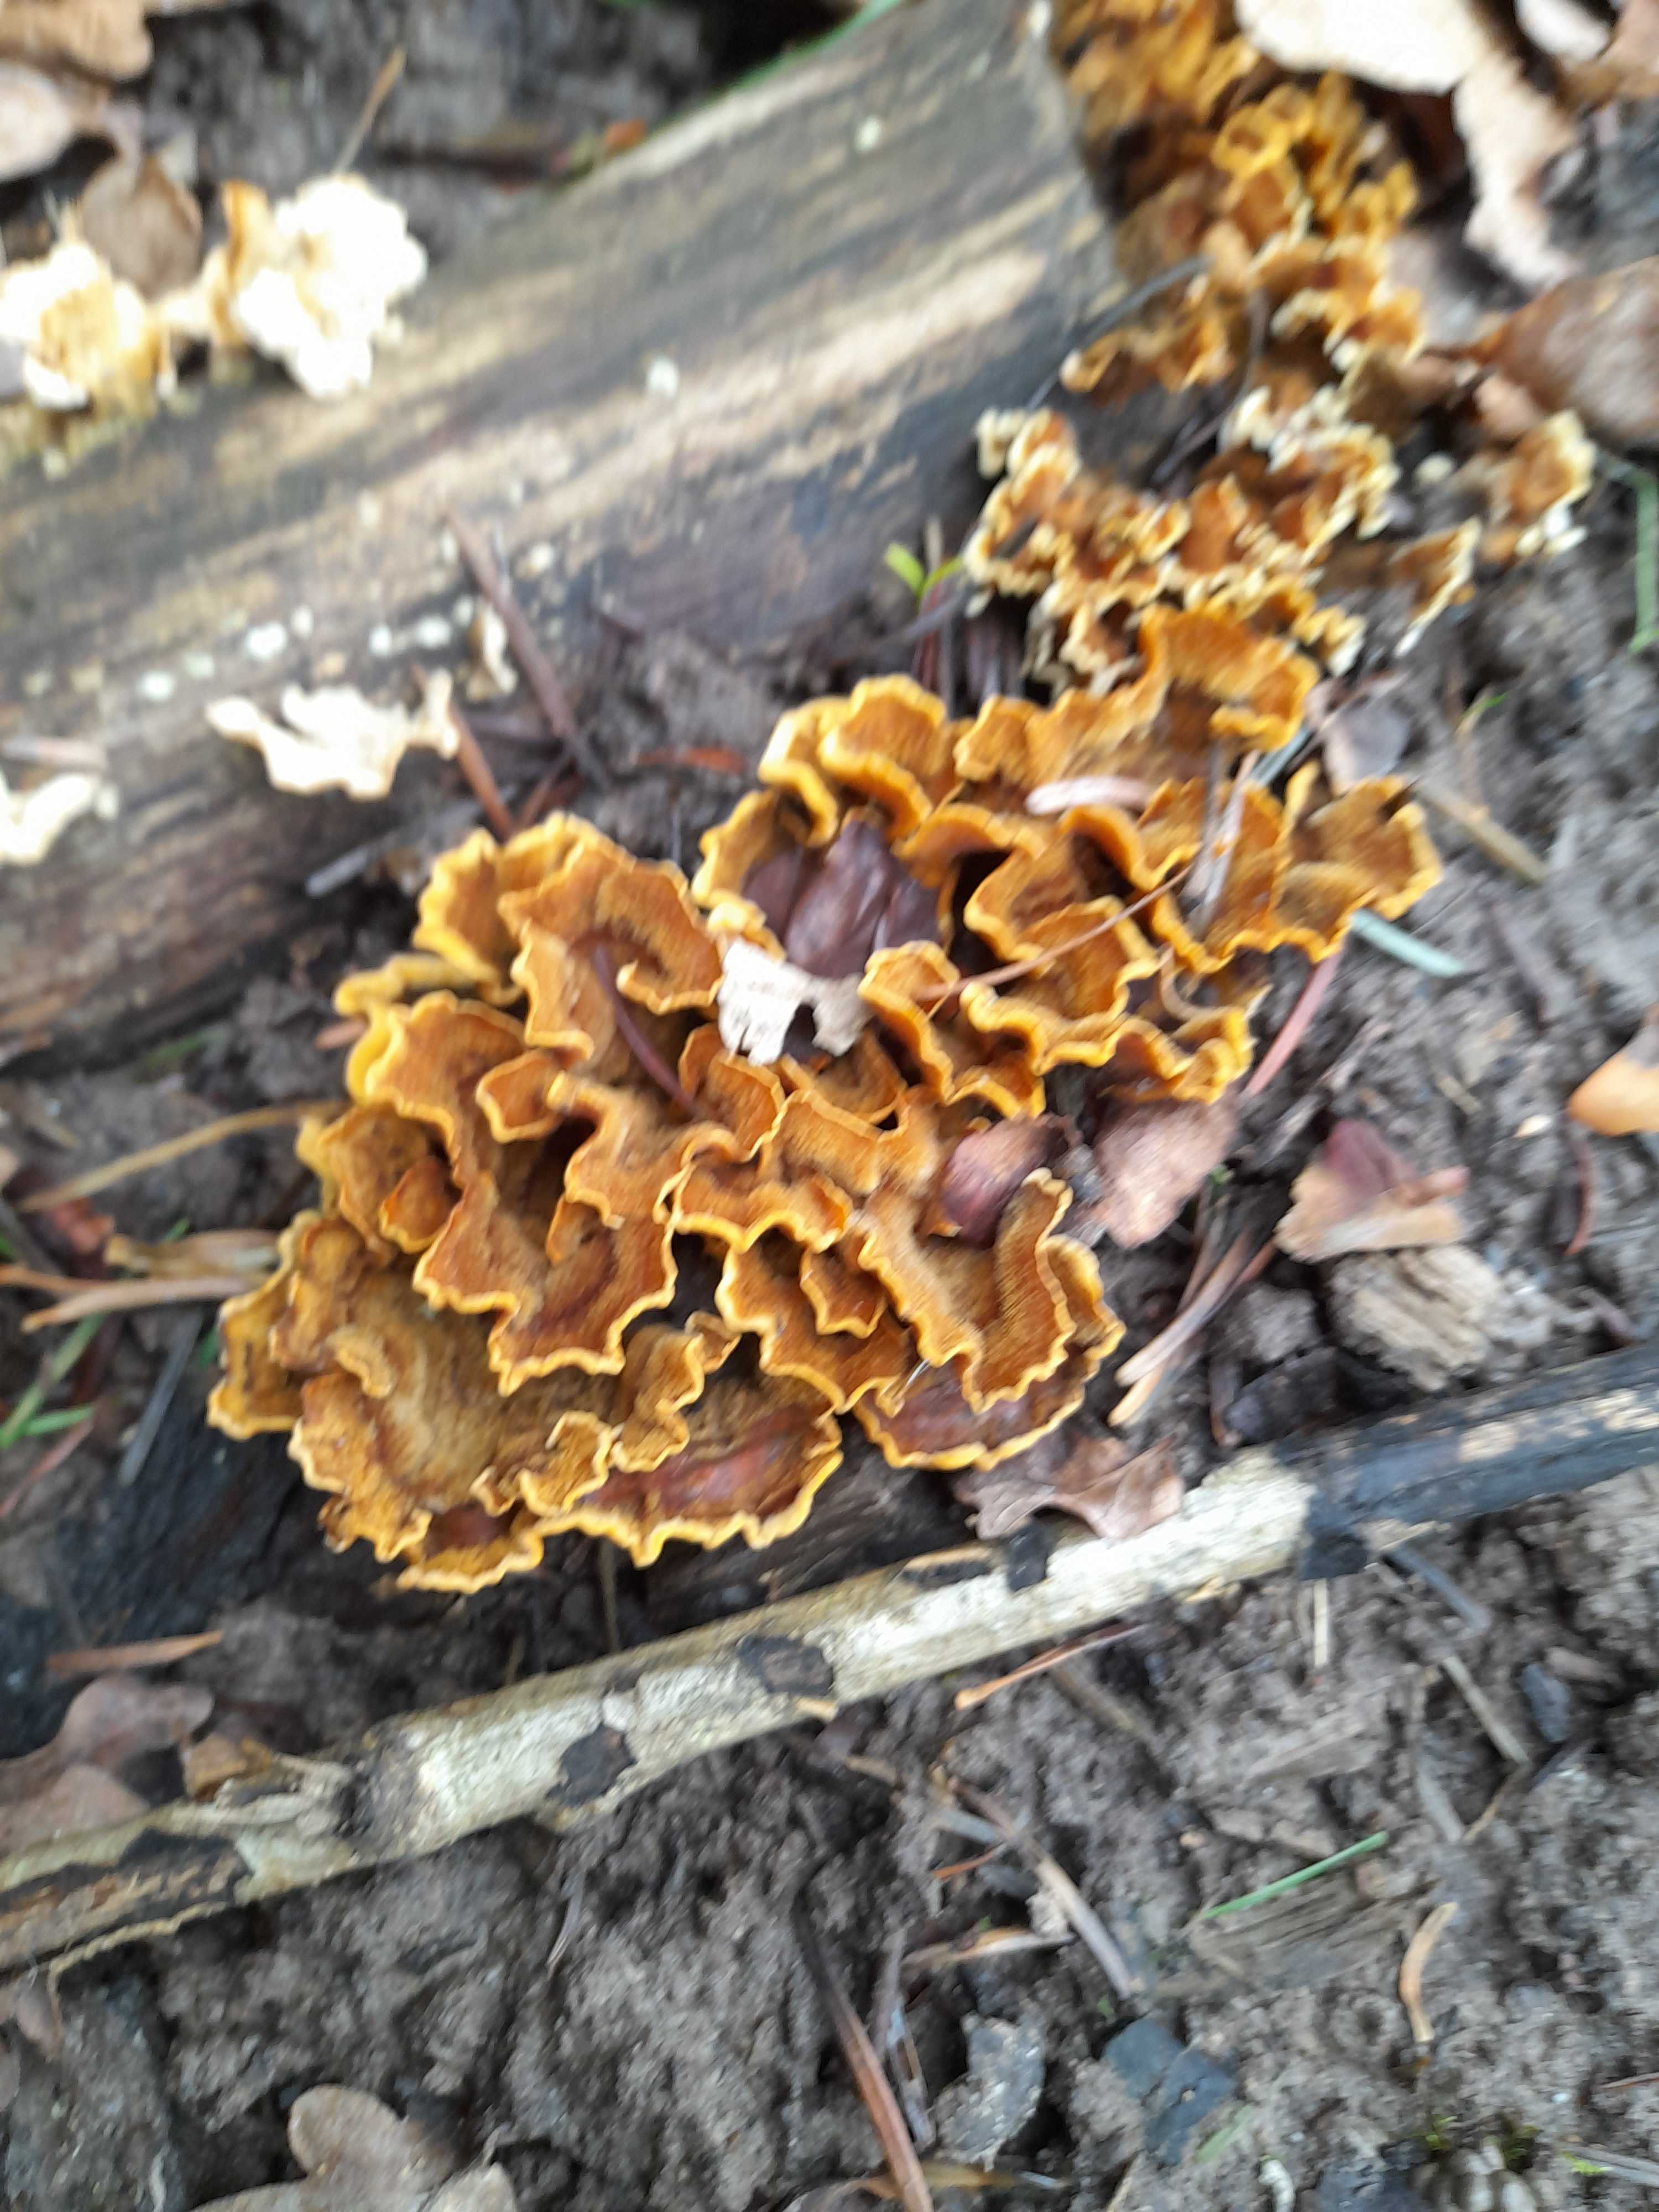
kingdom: Fungi
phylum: Basidiomycota
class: Agaricomycetes
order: Russulales
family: Stereaceae
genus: Stereum
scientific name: Stereum hirsutum
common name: håret lædersvamp
